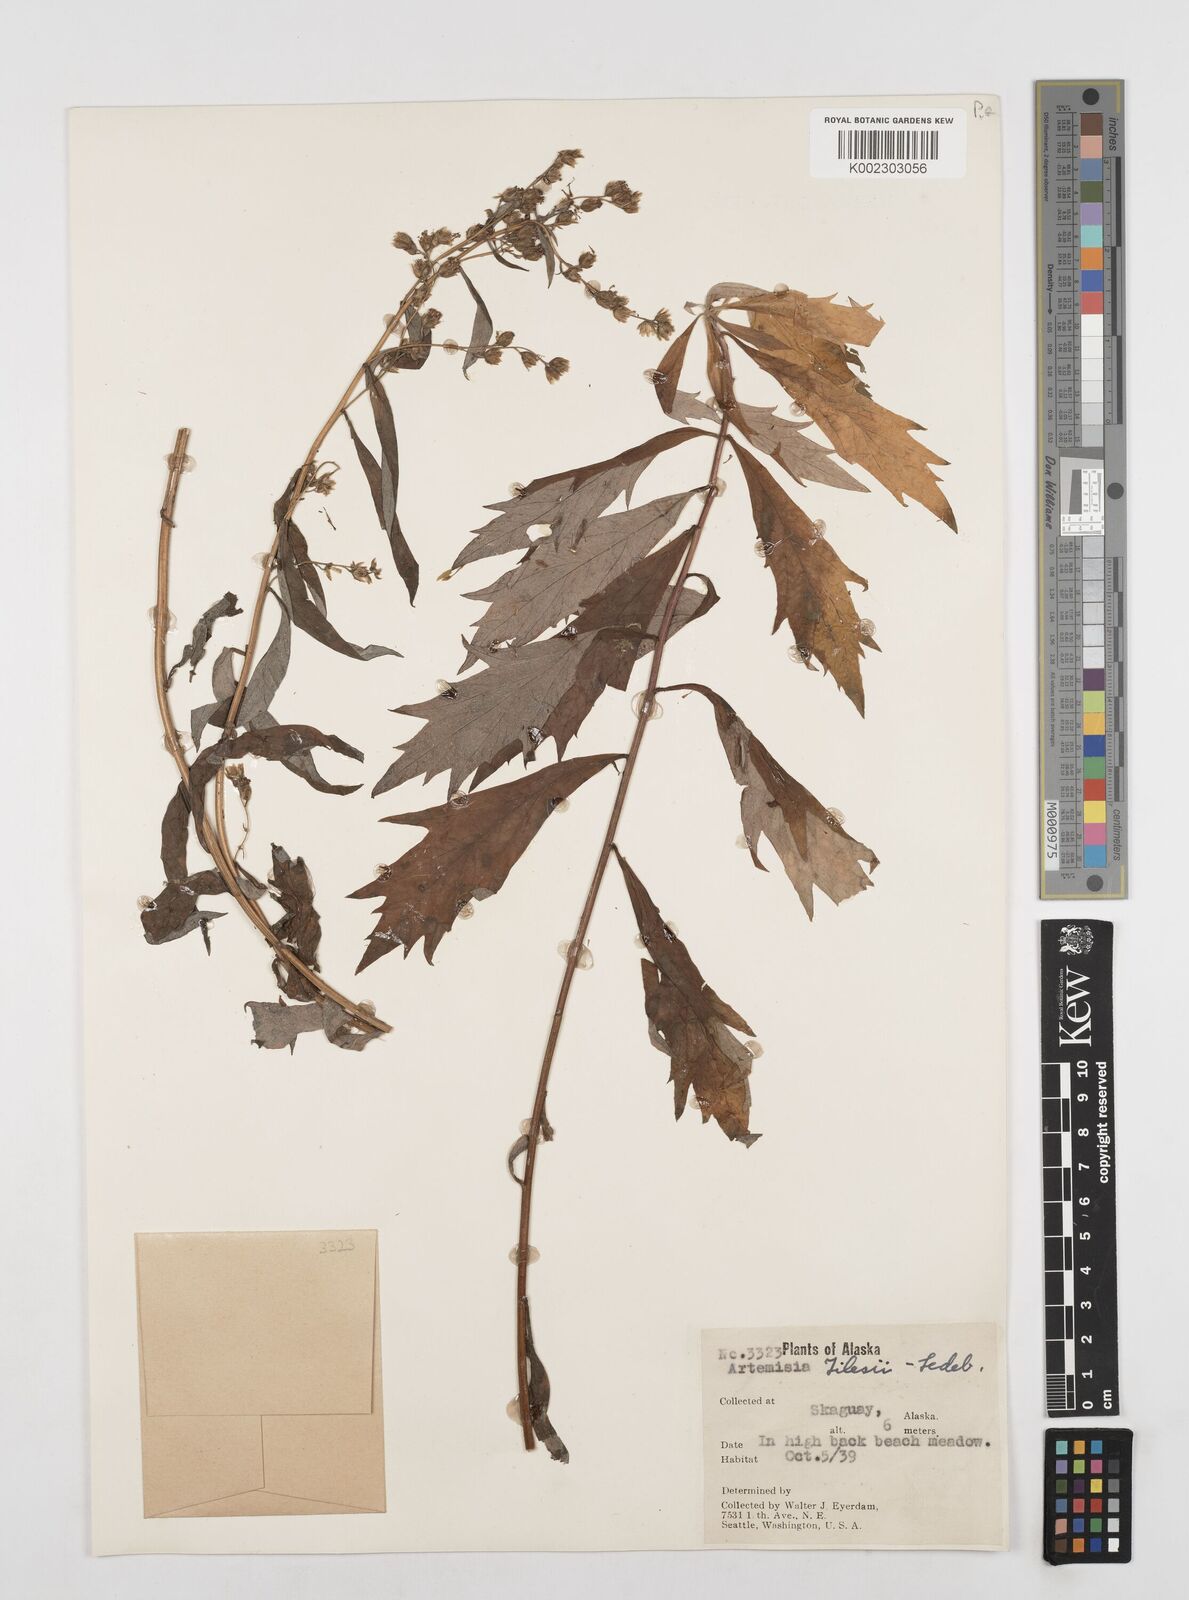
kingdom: Plantae
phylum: Tracheophyta
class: Magnoliopsida
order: Asterales
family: Asteraceae
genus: Artemisia
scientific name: Artemisia tilesii
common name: Aleutian mugwort
